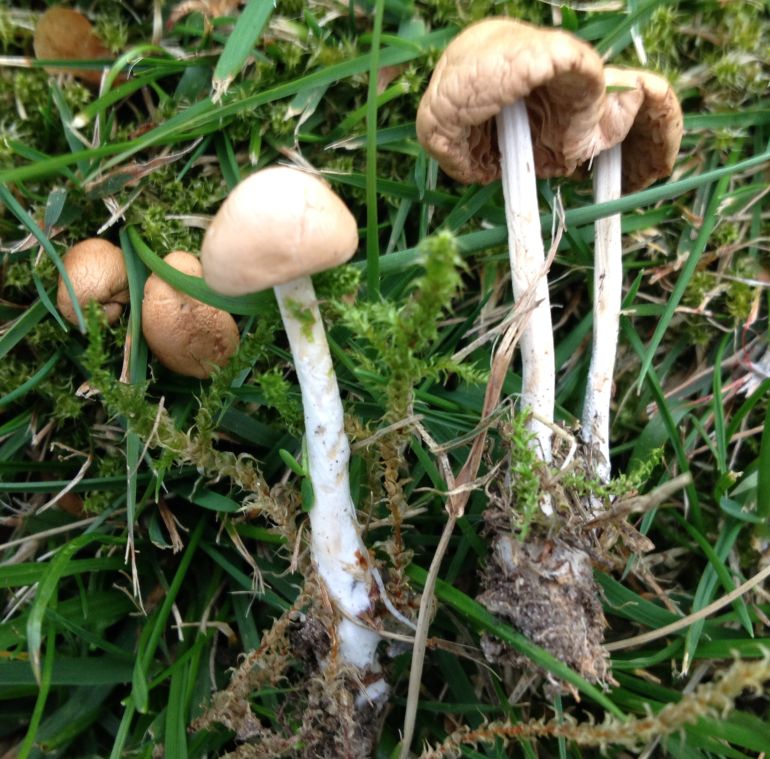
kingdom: Fungi
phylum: Basidiomycota
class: Agaricomycetes
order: Agaricales
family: Marasmiaceae
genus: Marasmius
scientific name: Marasmius oreades
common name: elledans-bruskhat
